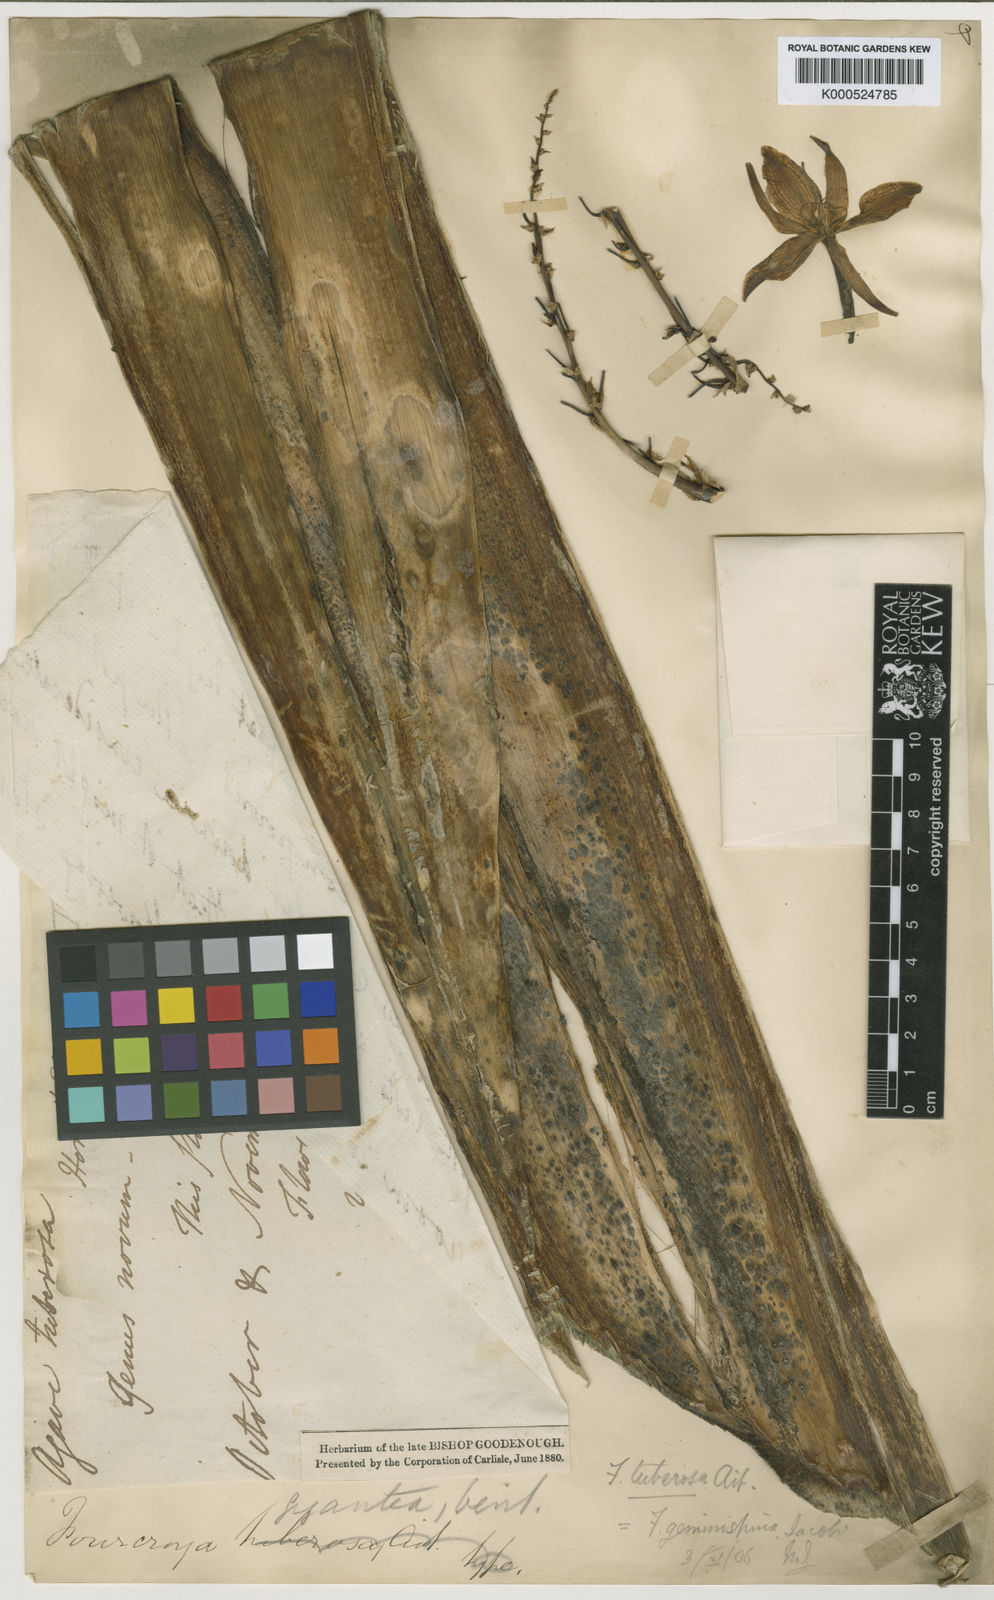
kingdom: Plantae
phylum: Tracheophyta
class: Liliopsida
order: Asparagales
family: Asparagaceae
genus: Furcraea
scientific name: Furcraea foetida
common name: Mauritius hemp
